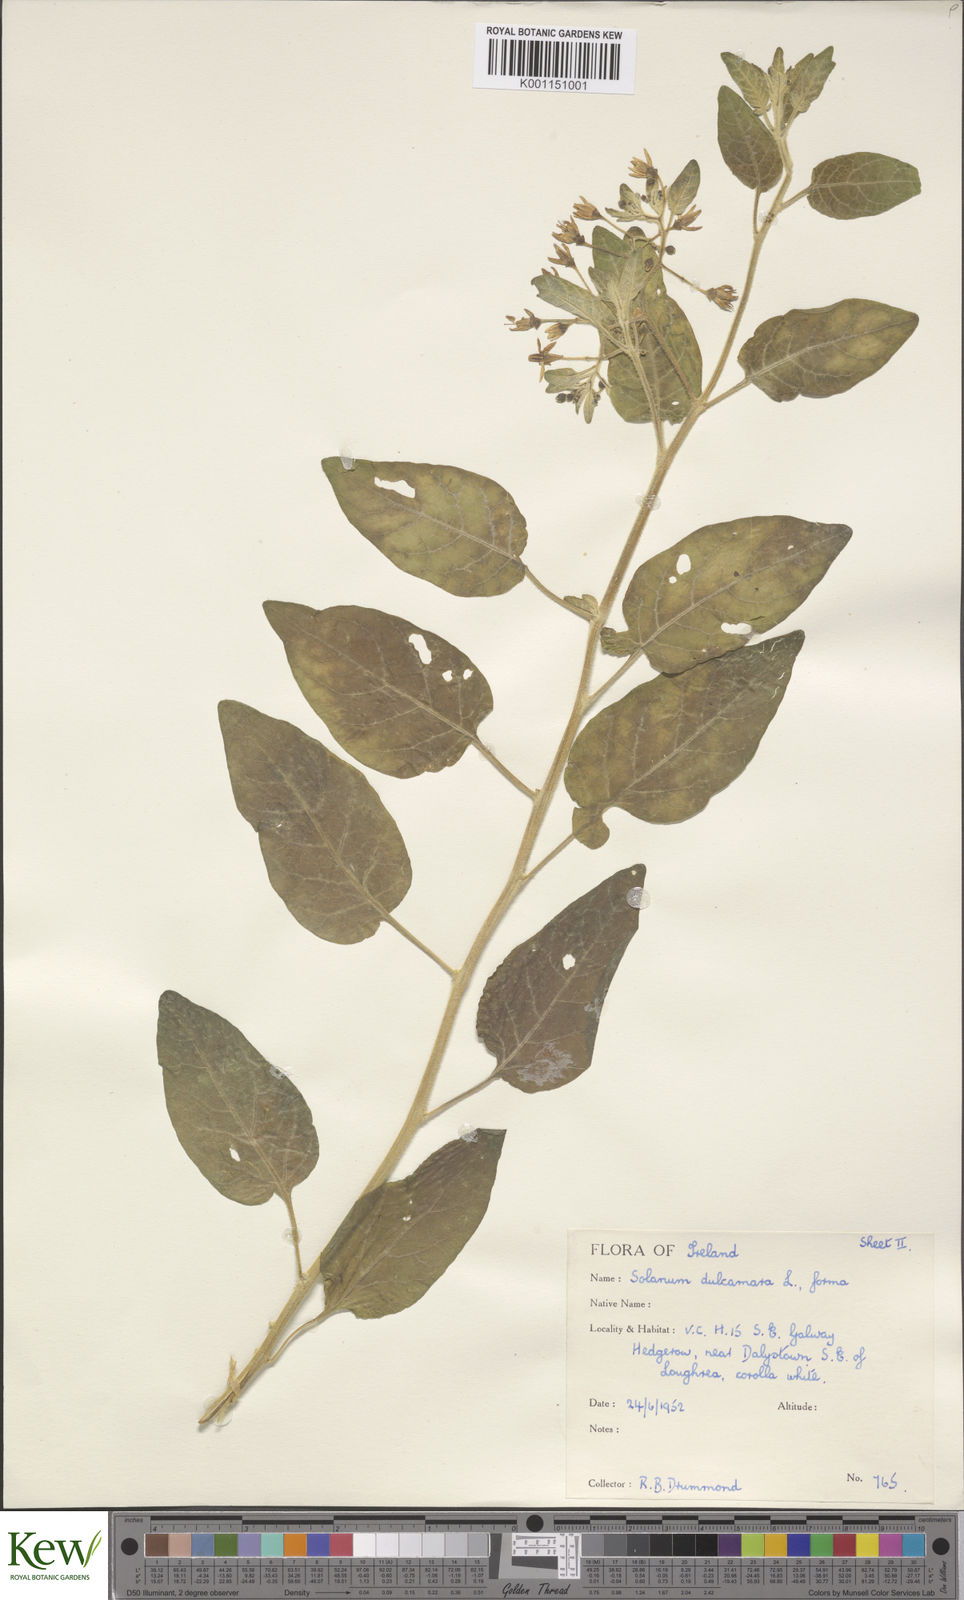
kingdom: Plantae
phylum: Tracheophyta
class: Magnoliopsida
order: Solanales
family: Solanaceae
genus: Solanum
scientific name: Solanum dulcamara
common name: Climbing nightshade
